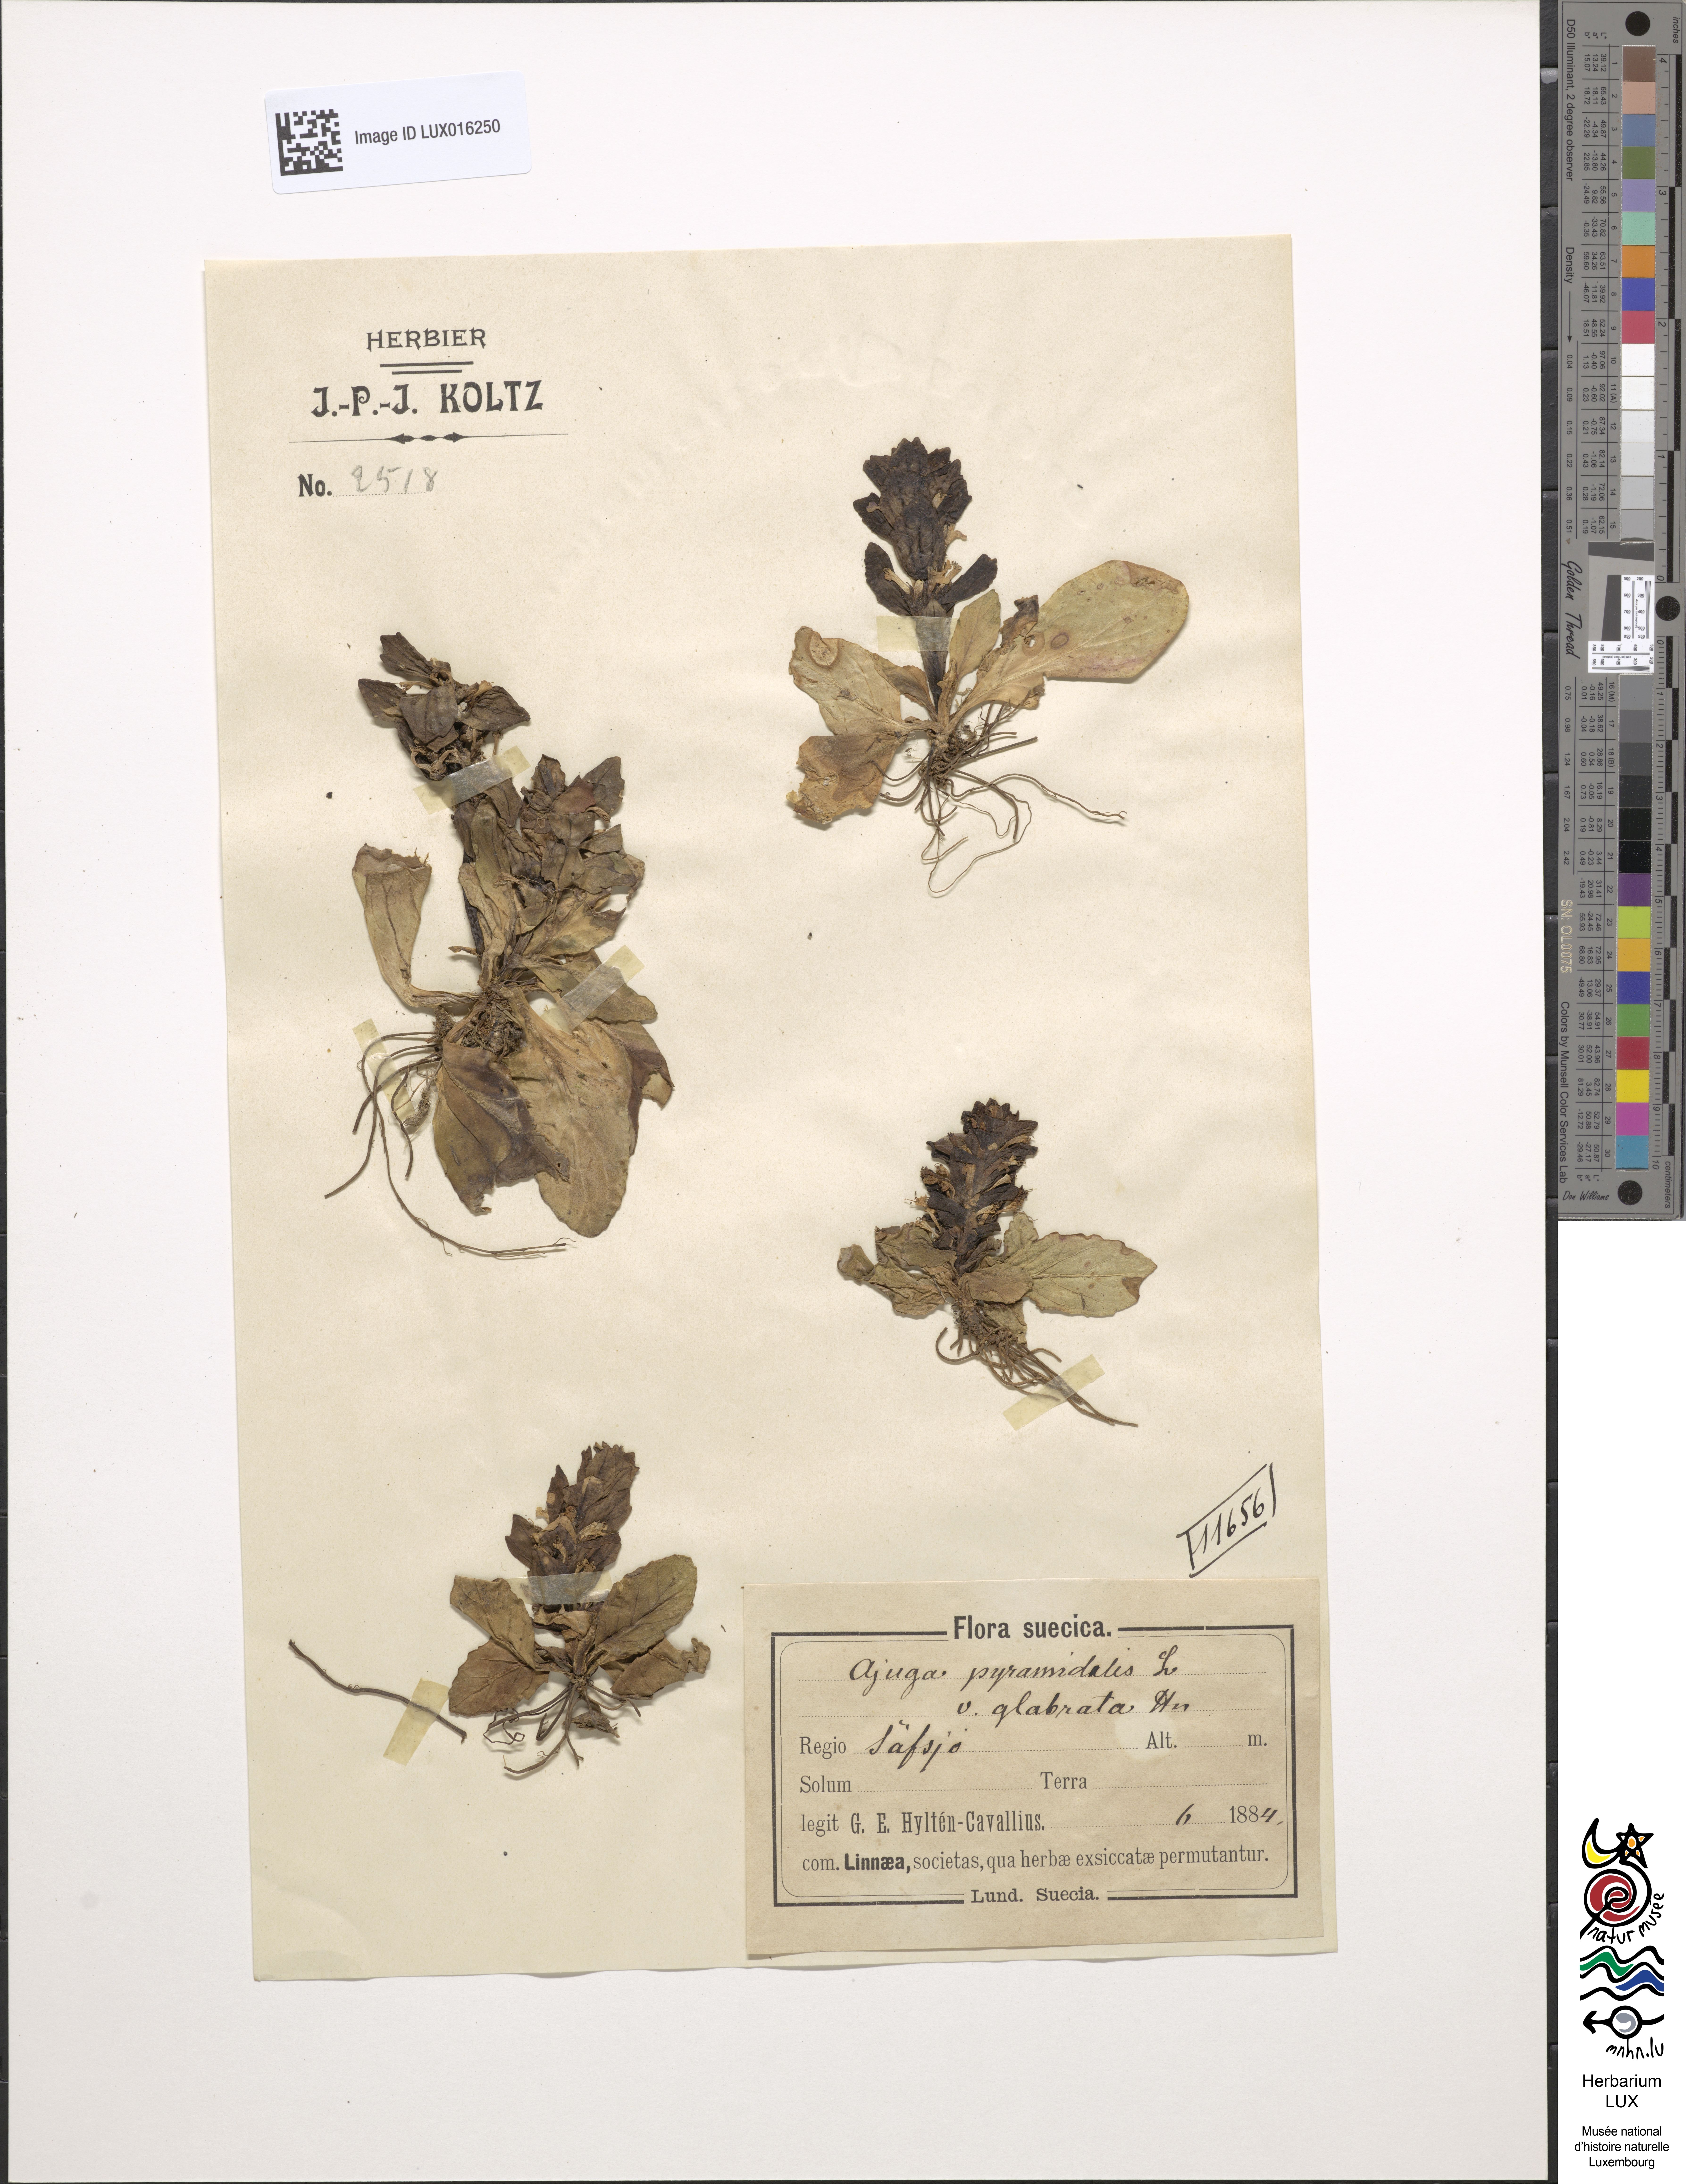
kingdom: Plantae
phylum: Tracheophyta
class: Magnoliopsida
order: Lamiales
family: Lamiaceae
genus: Ajuga
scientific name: Ajuga pyramidalis
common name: Pyramid bugle
